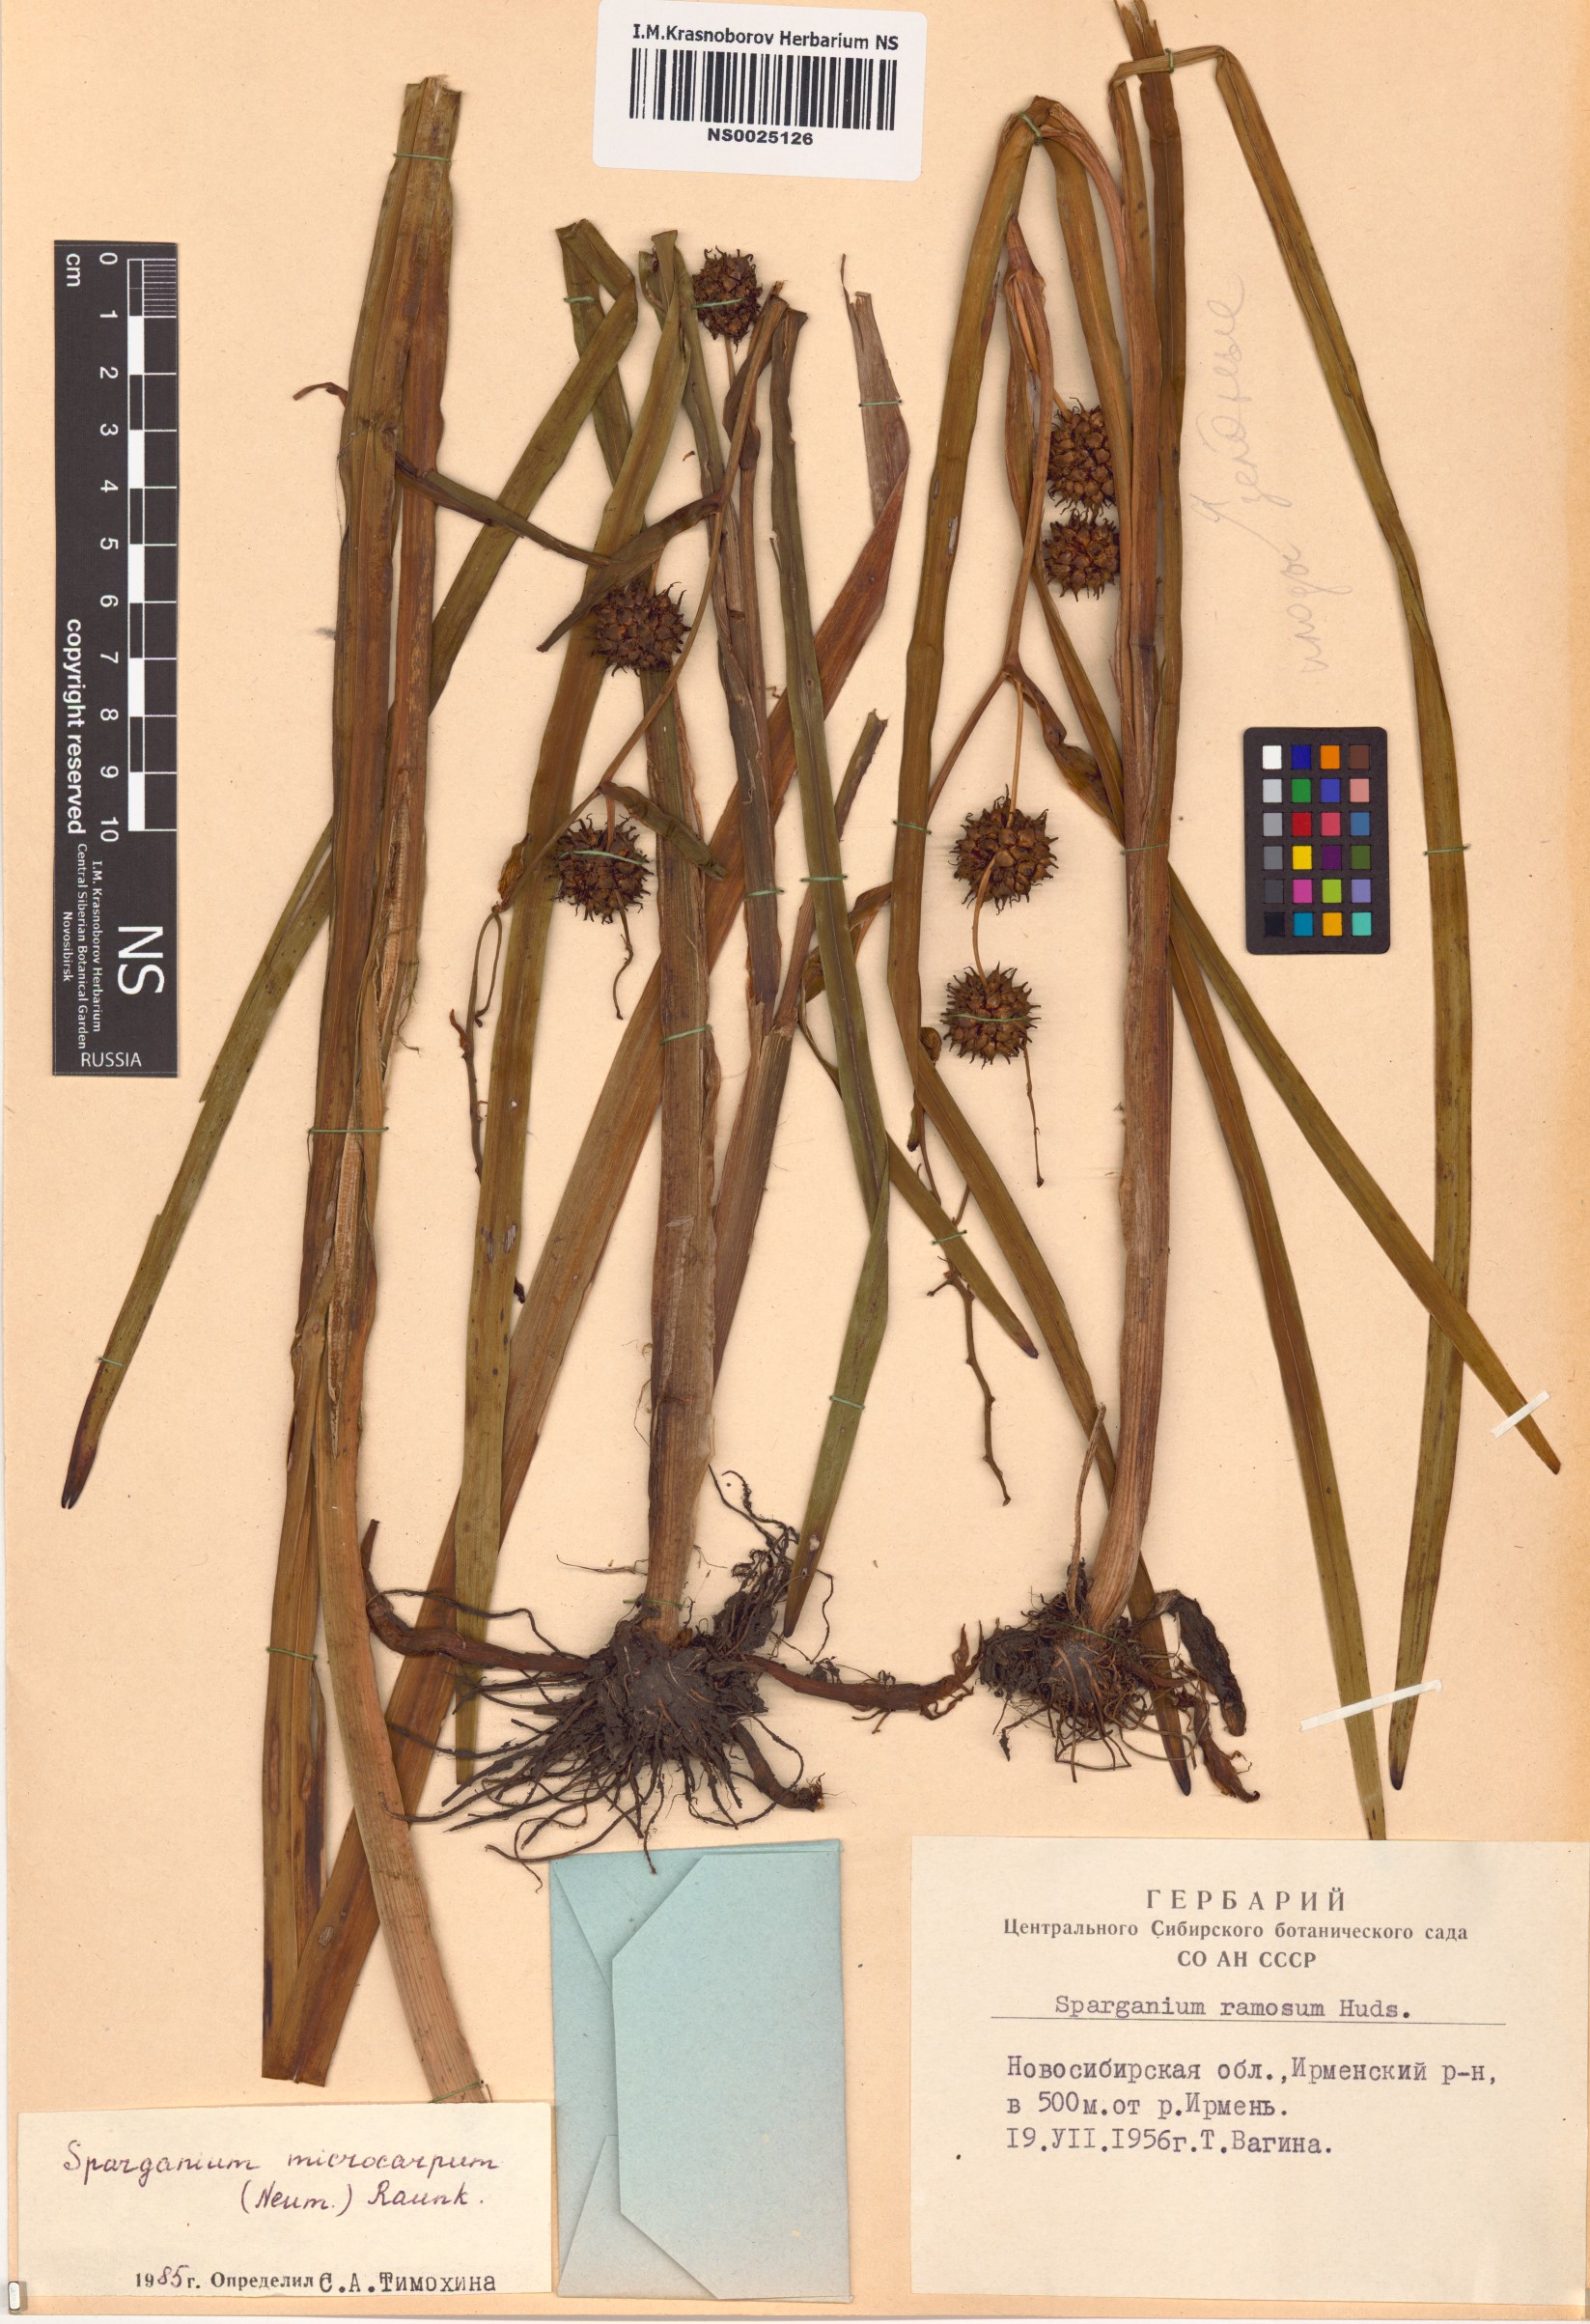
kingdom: Plantae
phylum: Tracheophyta
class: Liliopsida
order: Poales
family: Typhaceae
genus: Sparganium
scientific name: Sparganium erectum
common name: Branched bur-reed
